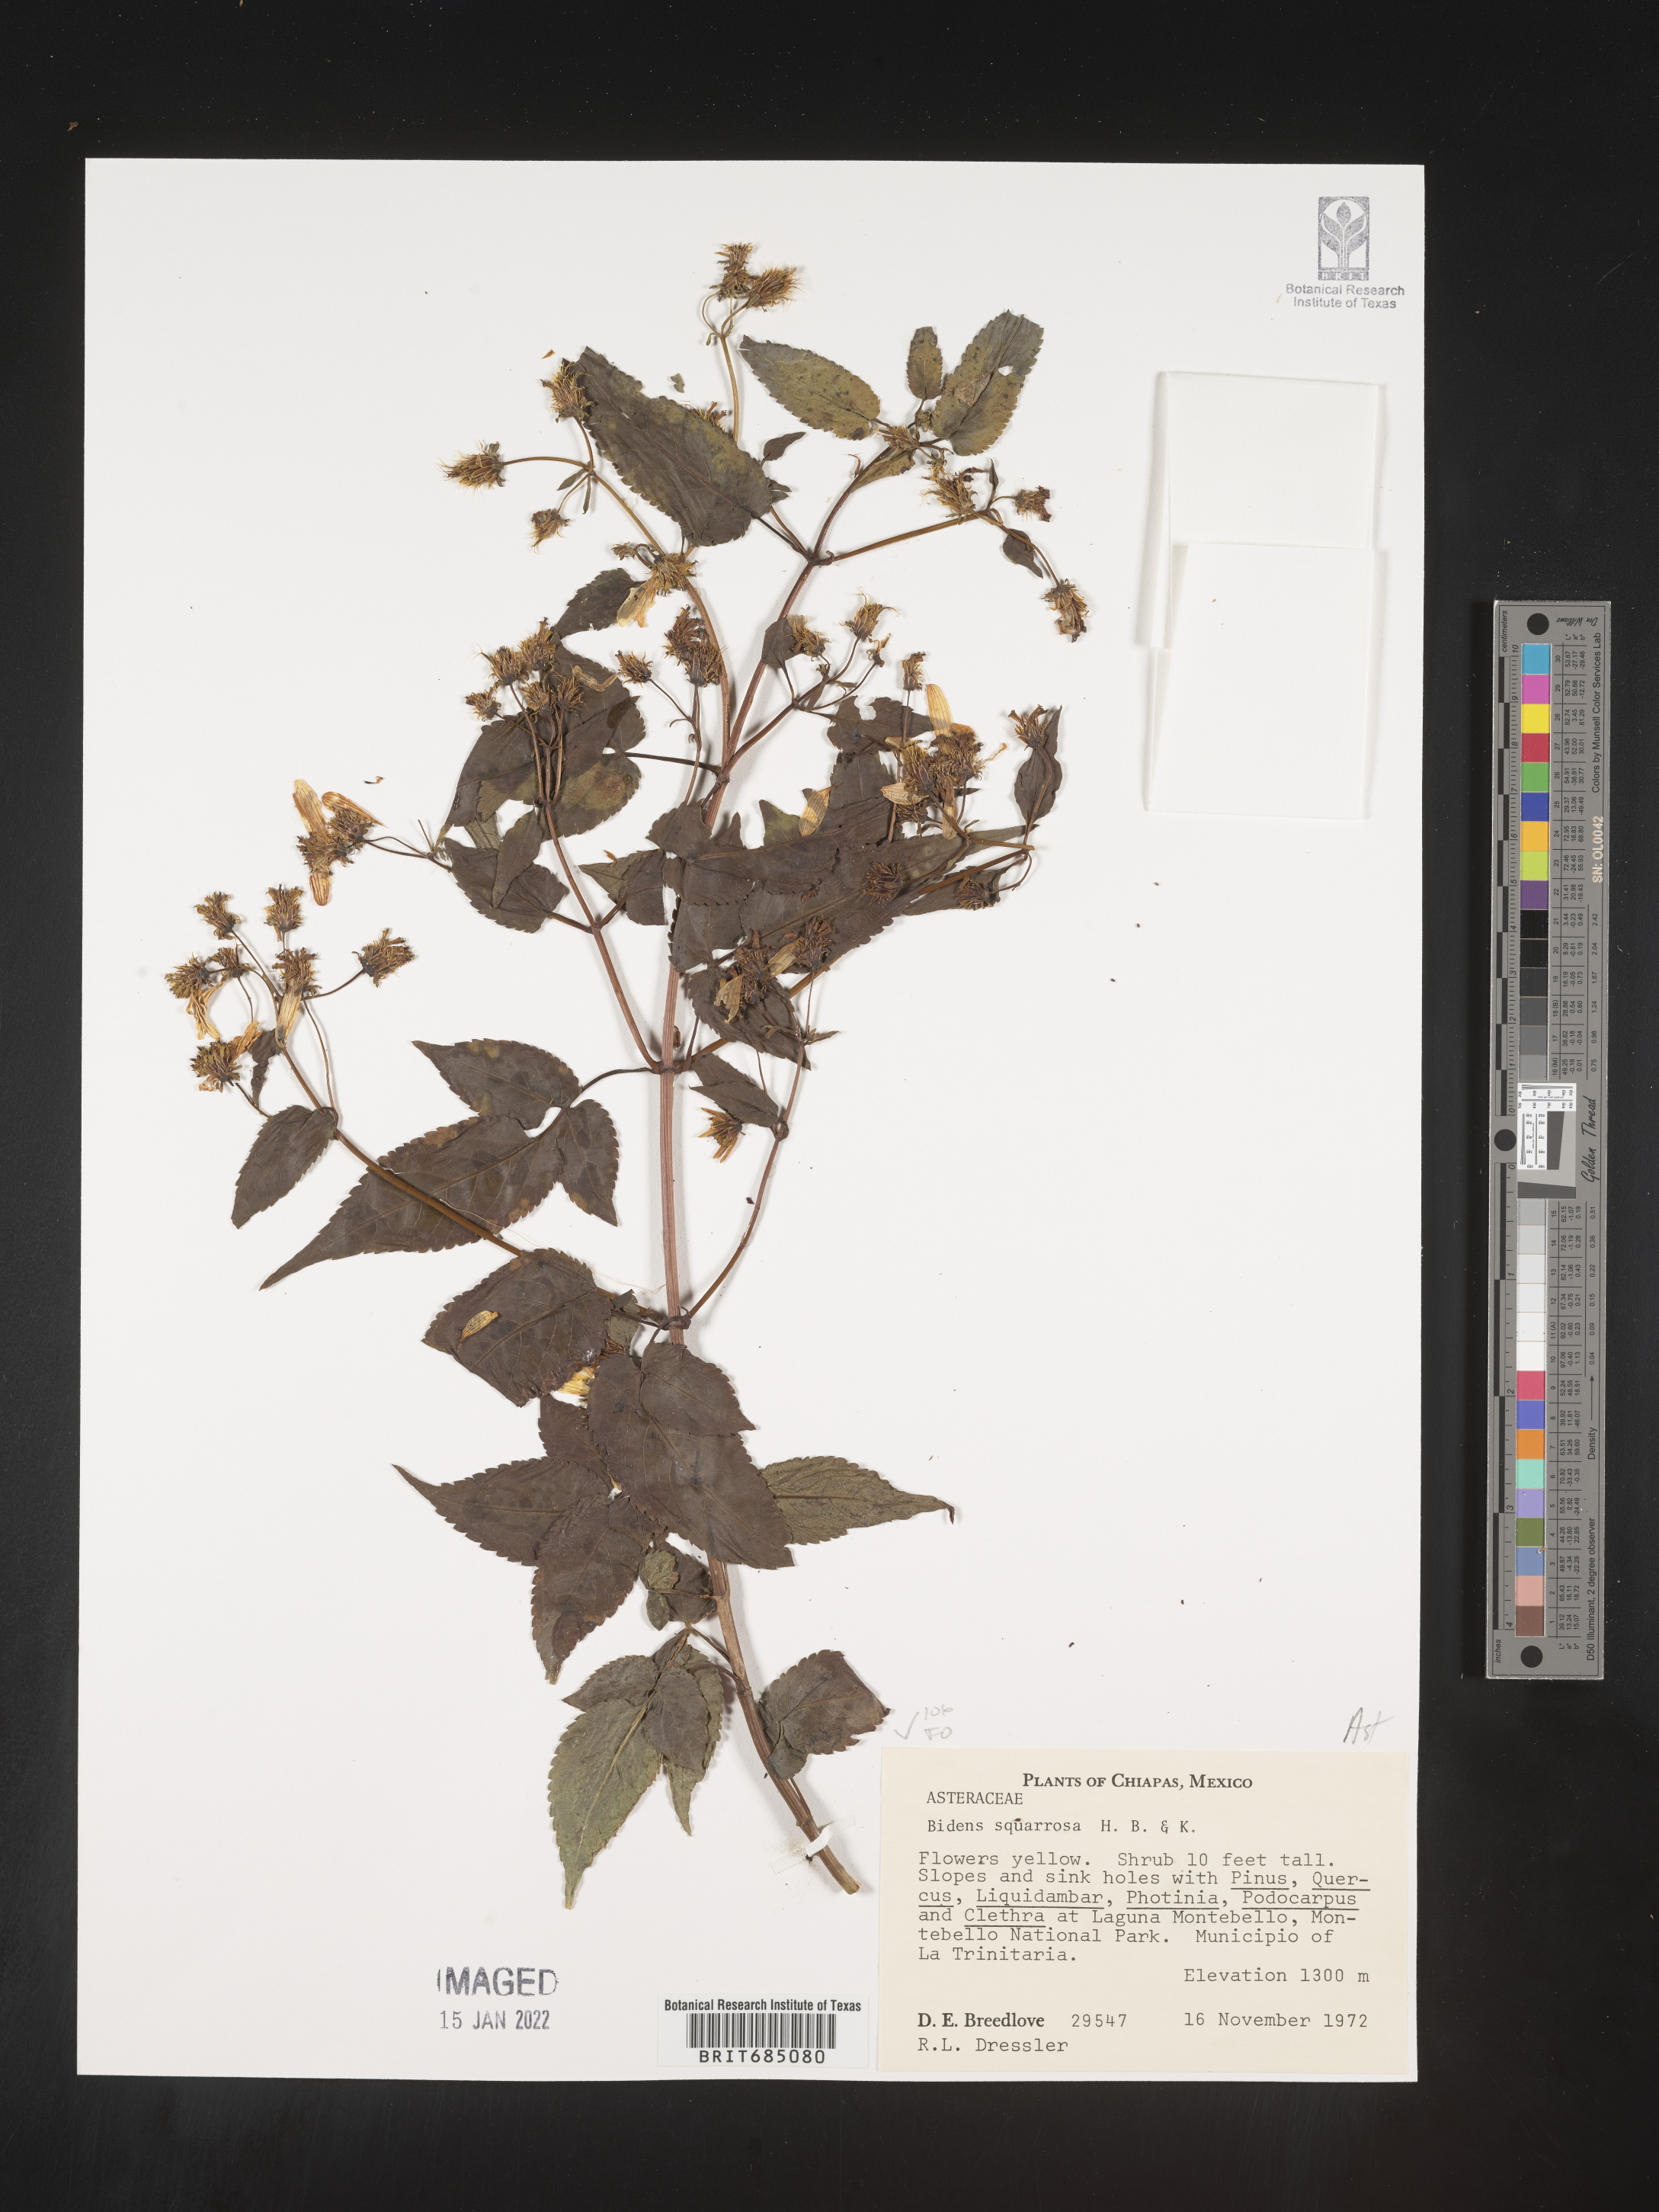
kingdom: Plantae
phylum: Tracheophyta
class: Magnoliopsida
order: Asterales
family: Asteraceae
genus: Bidens
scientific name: Bidens rubicundula
